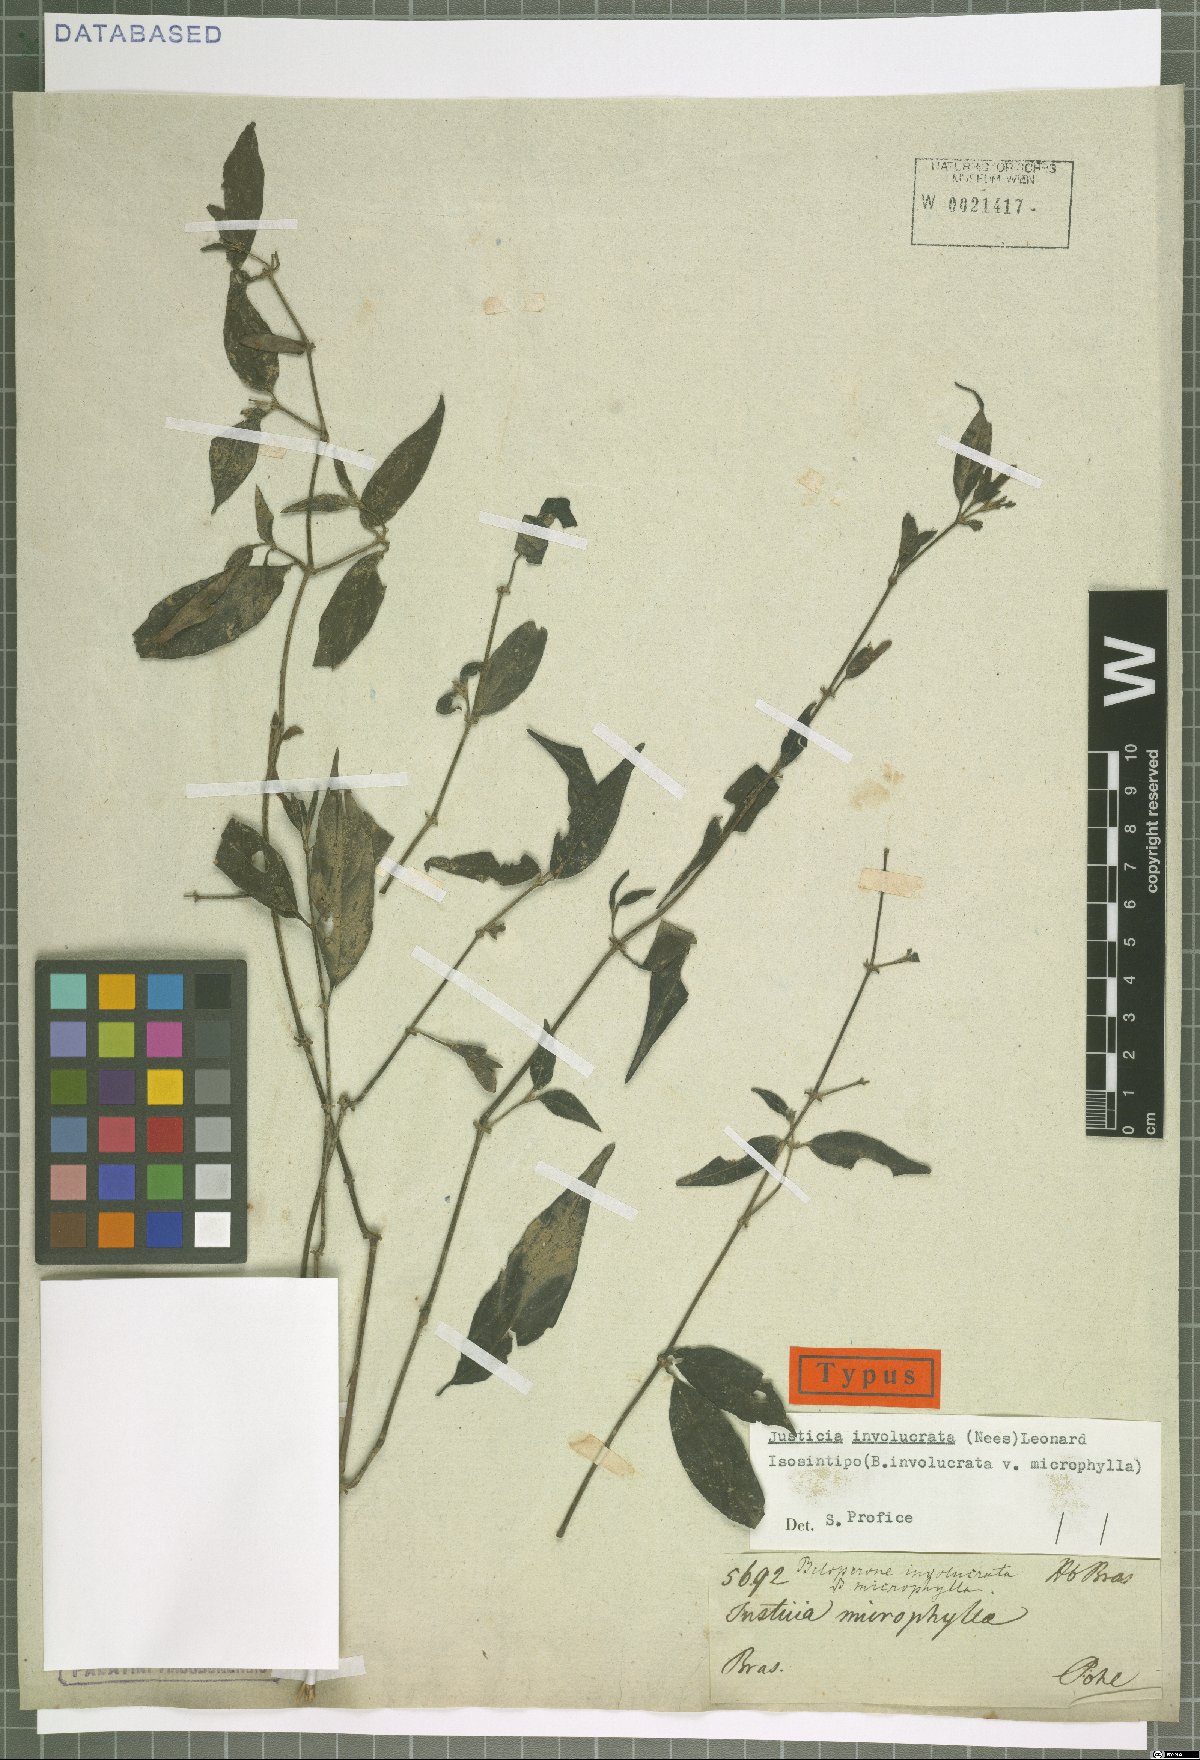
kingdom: Plantae
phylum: Tracheophyta
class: Magnoliopsida
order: Lamiales
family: Acanthaceae
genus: Justicia
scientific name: Justicia involucrata
